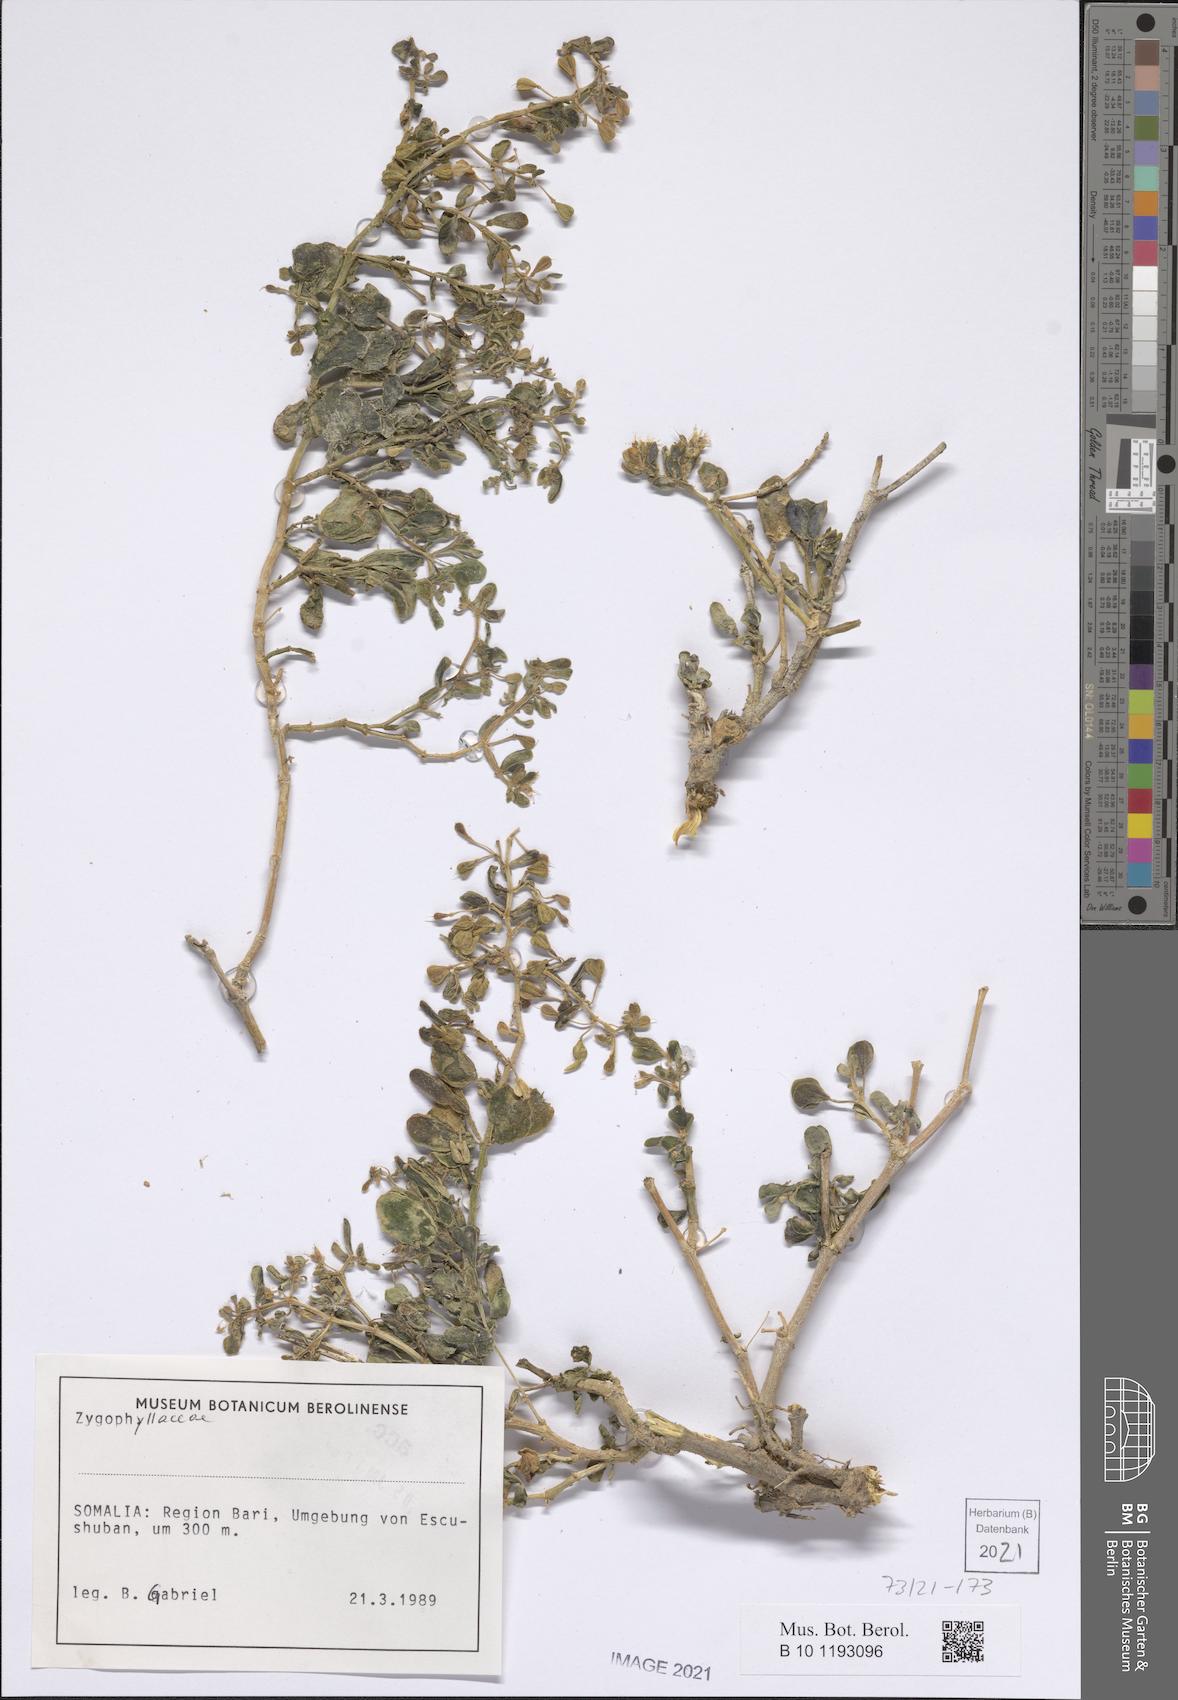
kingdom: Plantae
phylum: Tracheophyta
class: Magnoliopsida
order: Zygophyllales
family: Zygophyllaceae
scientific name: Zygophyllaceae
